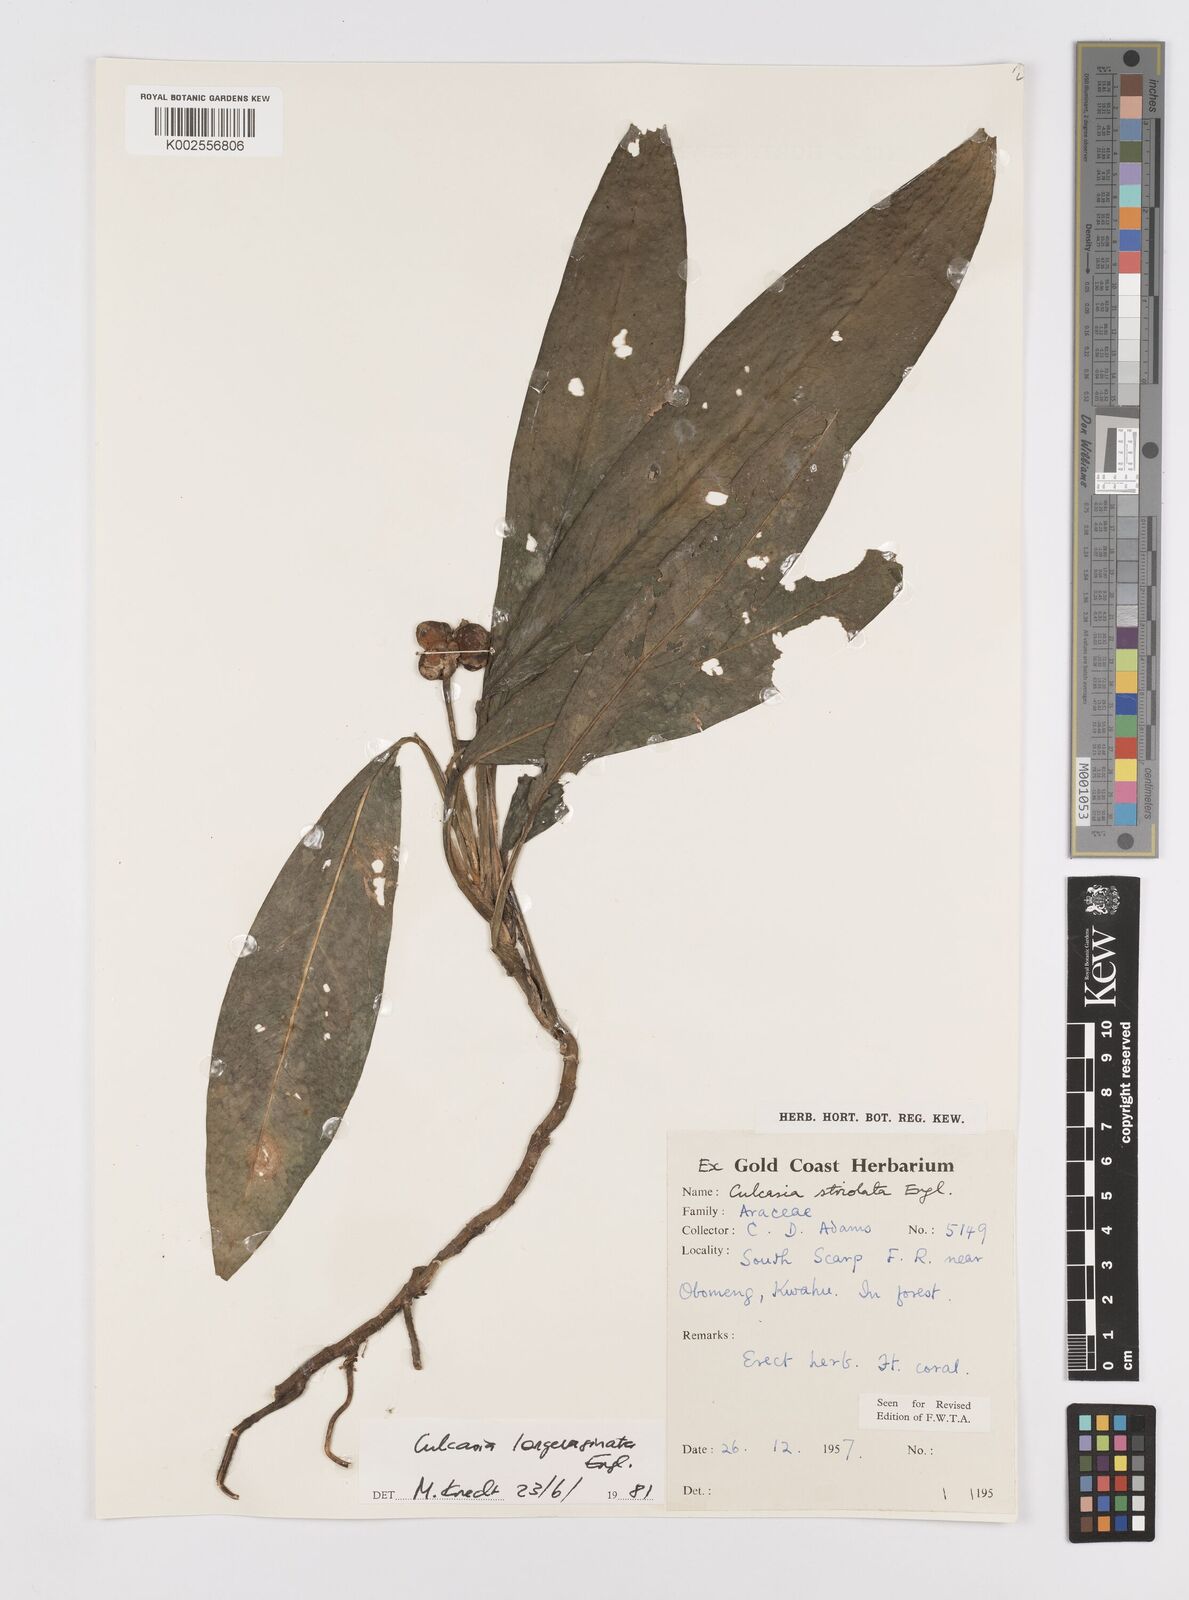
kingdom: Plantae
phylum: Tracheophyta
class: Liliopsida
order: Alismatales
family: Araceae
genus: Culcasia
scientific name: Culcasia striolata
